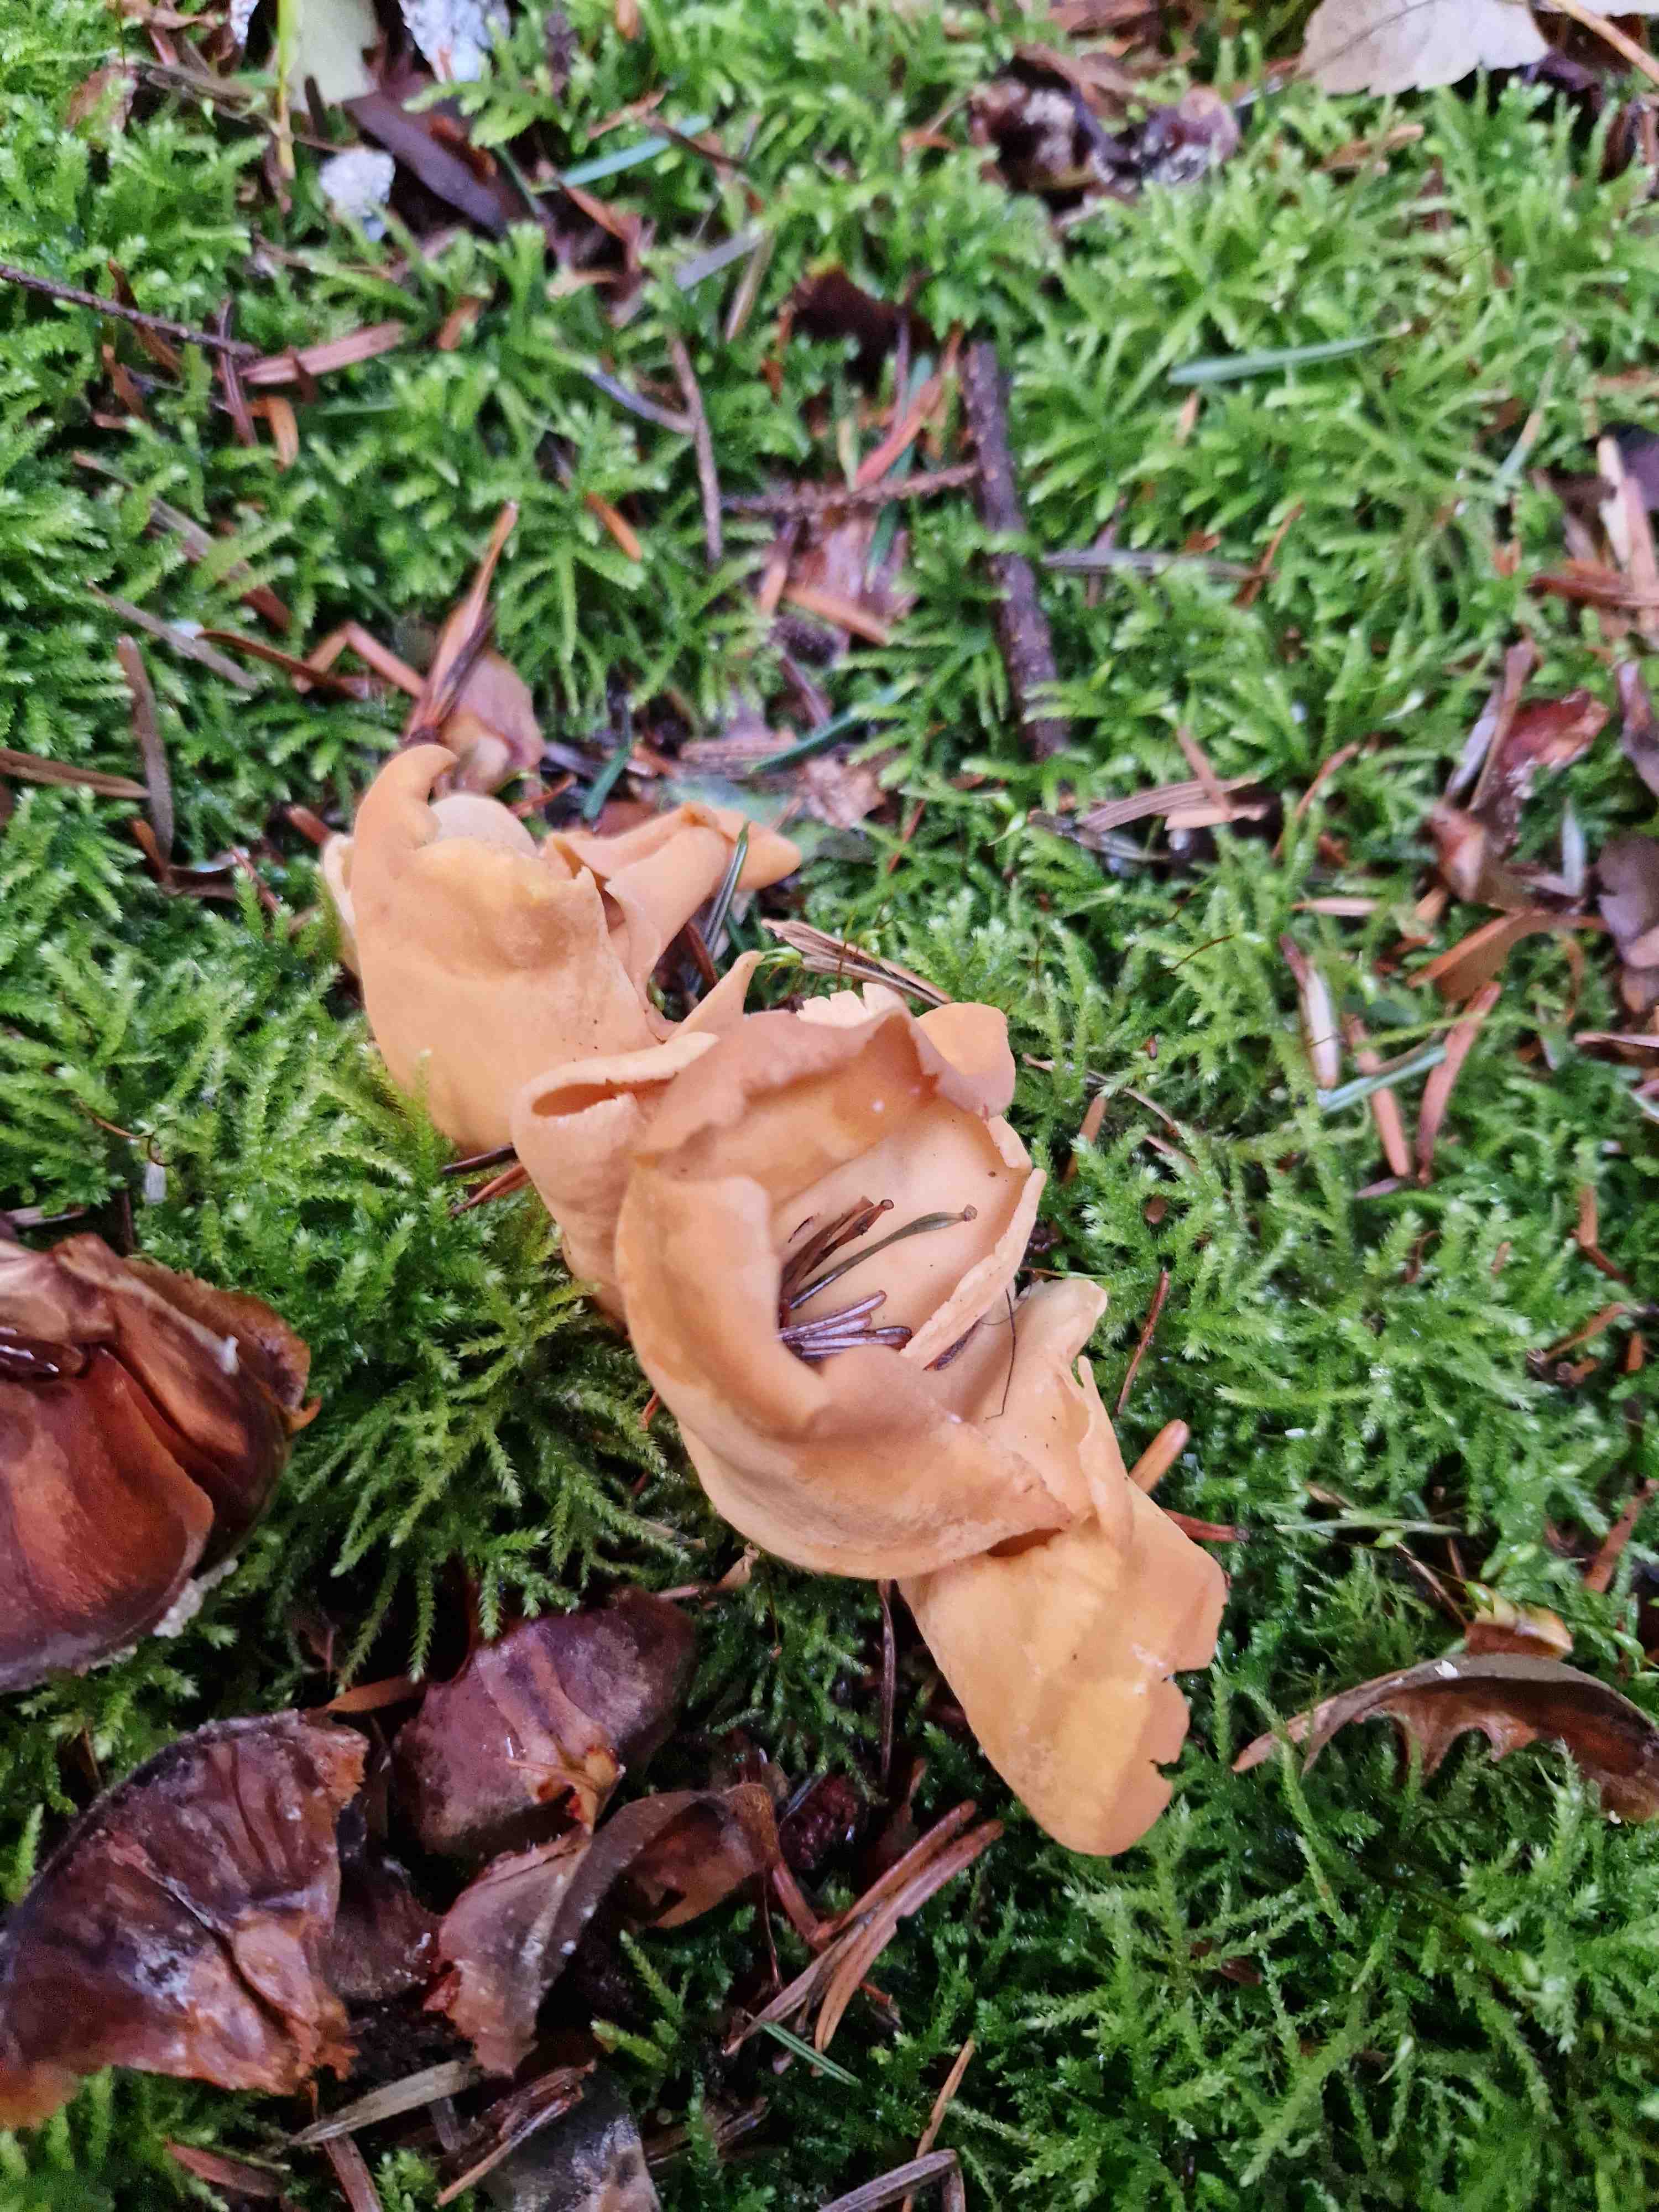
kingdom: Fungi
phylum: Ascomycota
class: Pezizomycetes
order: Pezizales
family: Otideaceae
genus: Otidea
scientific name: Otidea
